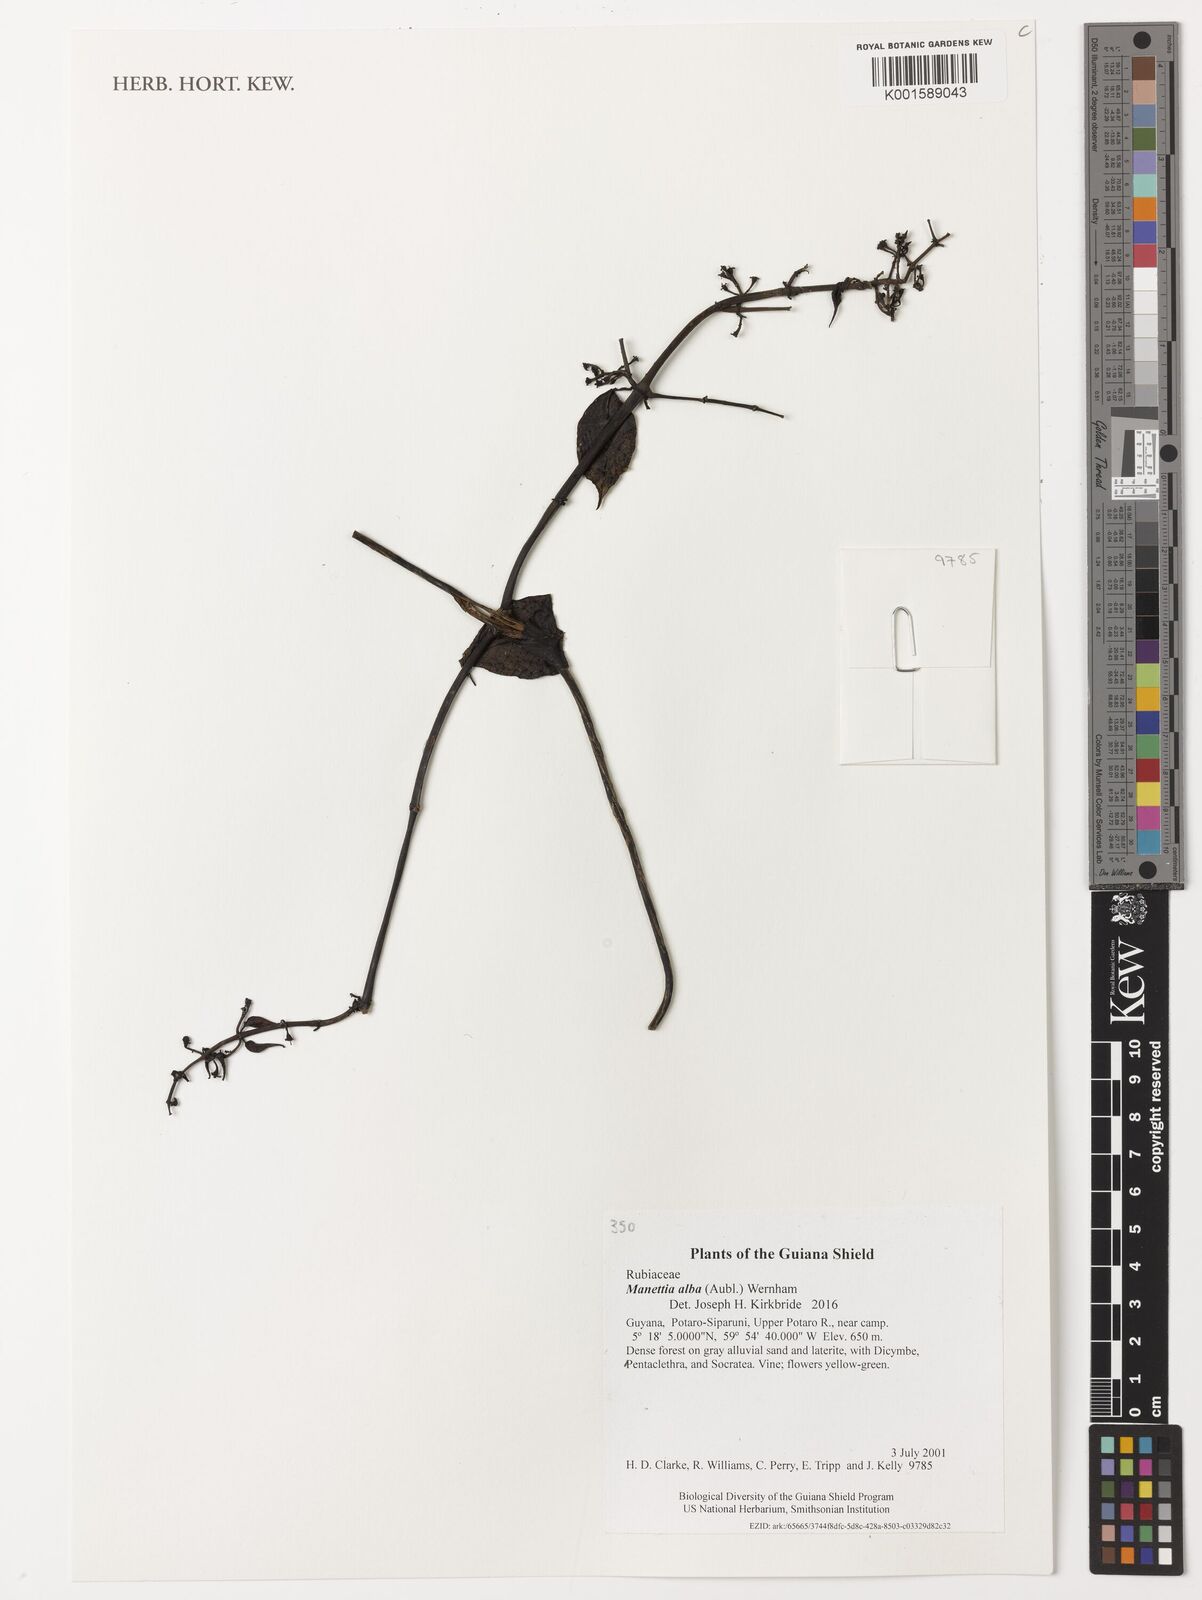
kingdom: Plantae
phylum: Tracheophyta
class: Magnoliopsida
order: Gentianales
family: Rubiaceae
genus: Manettia
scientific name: Manettia alba
